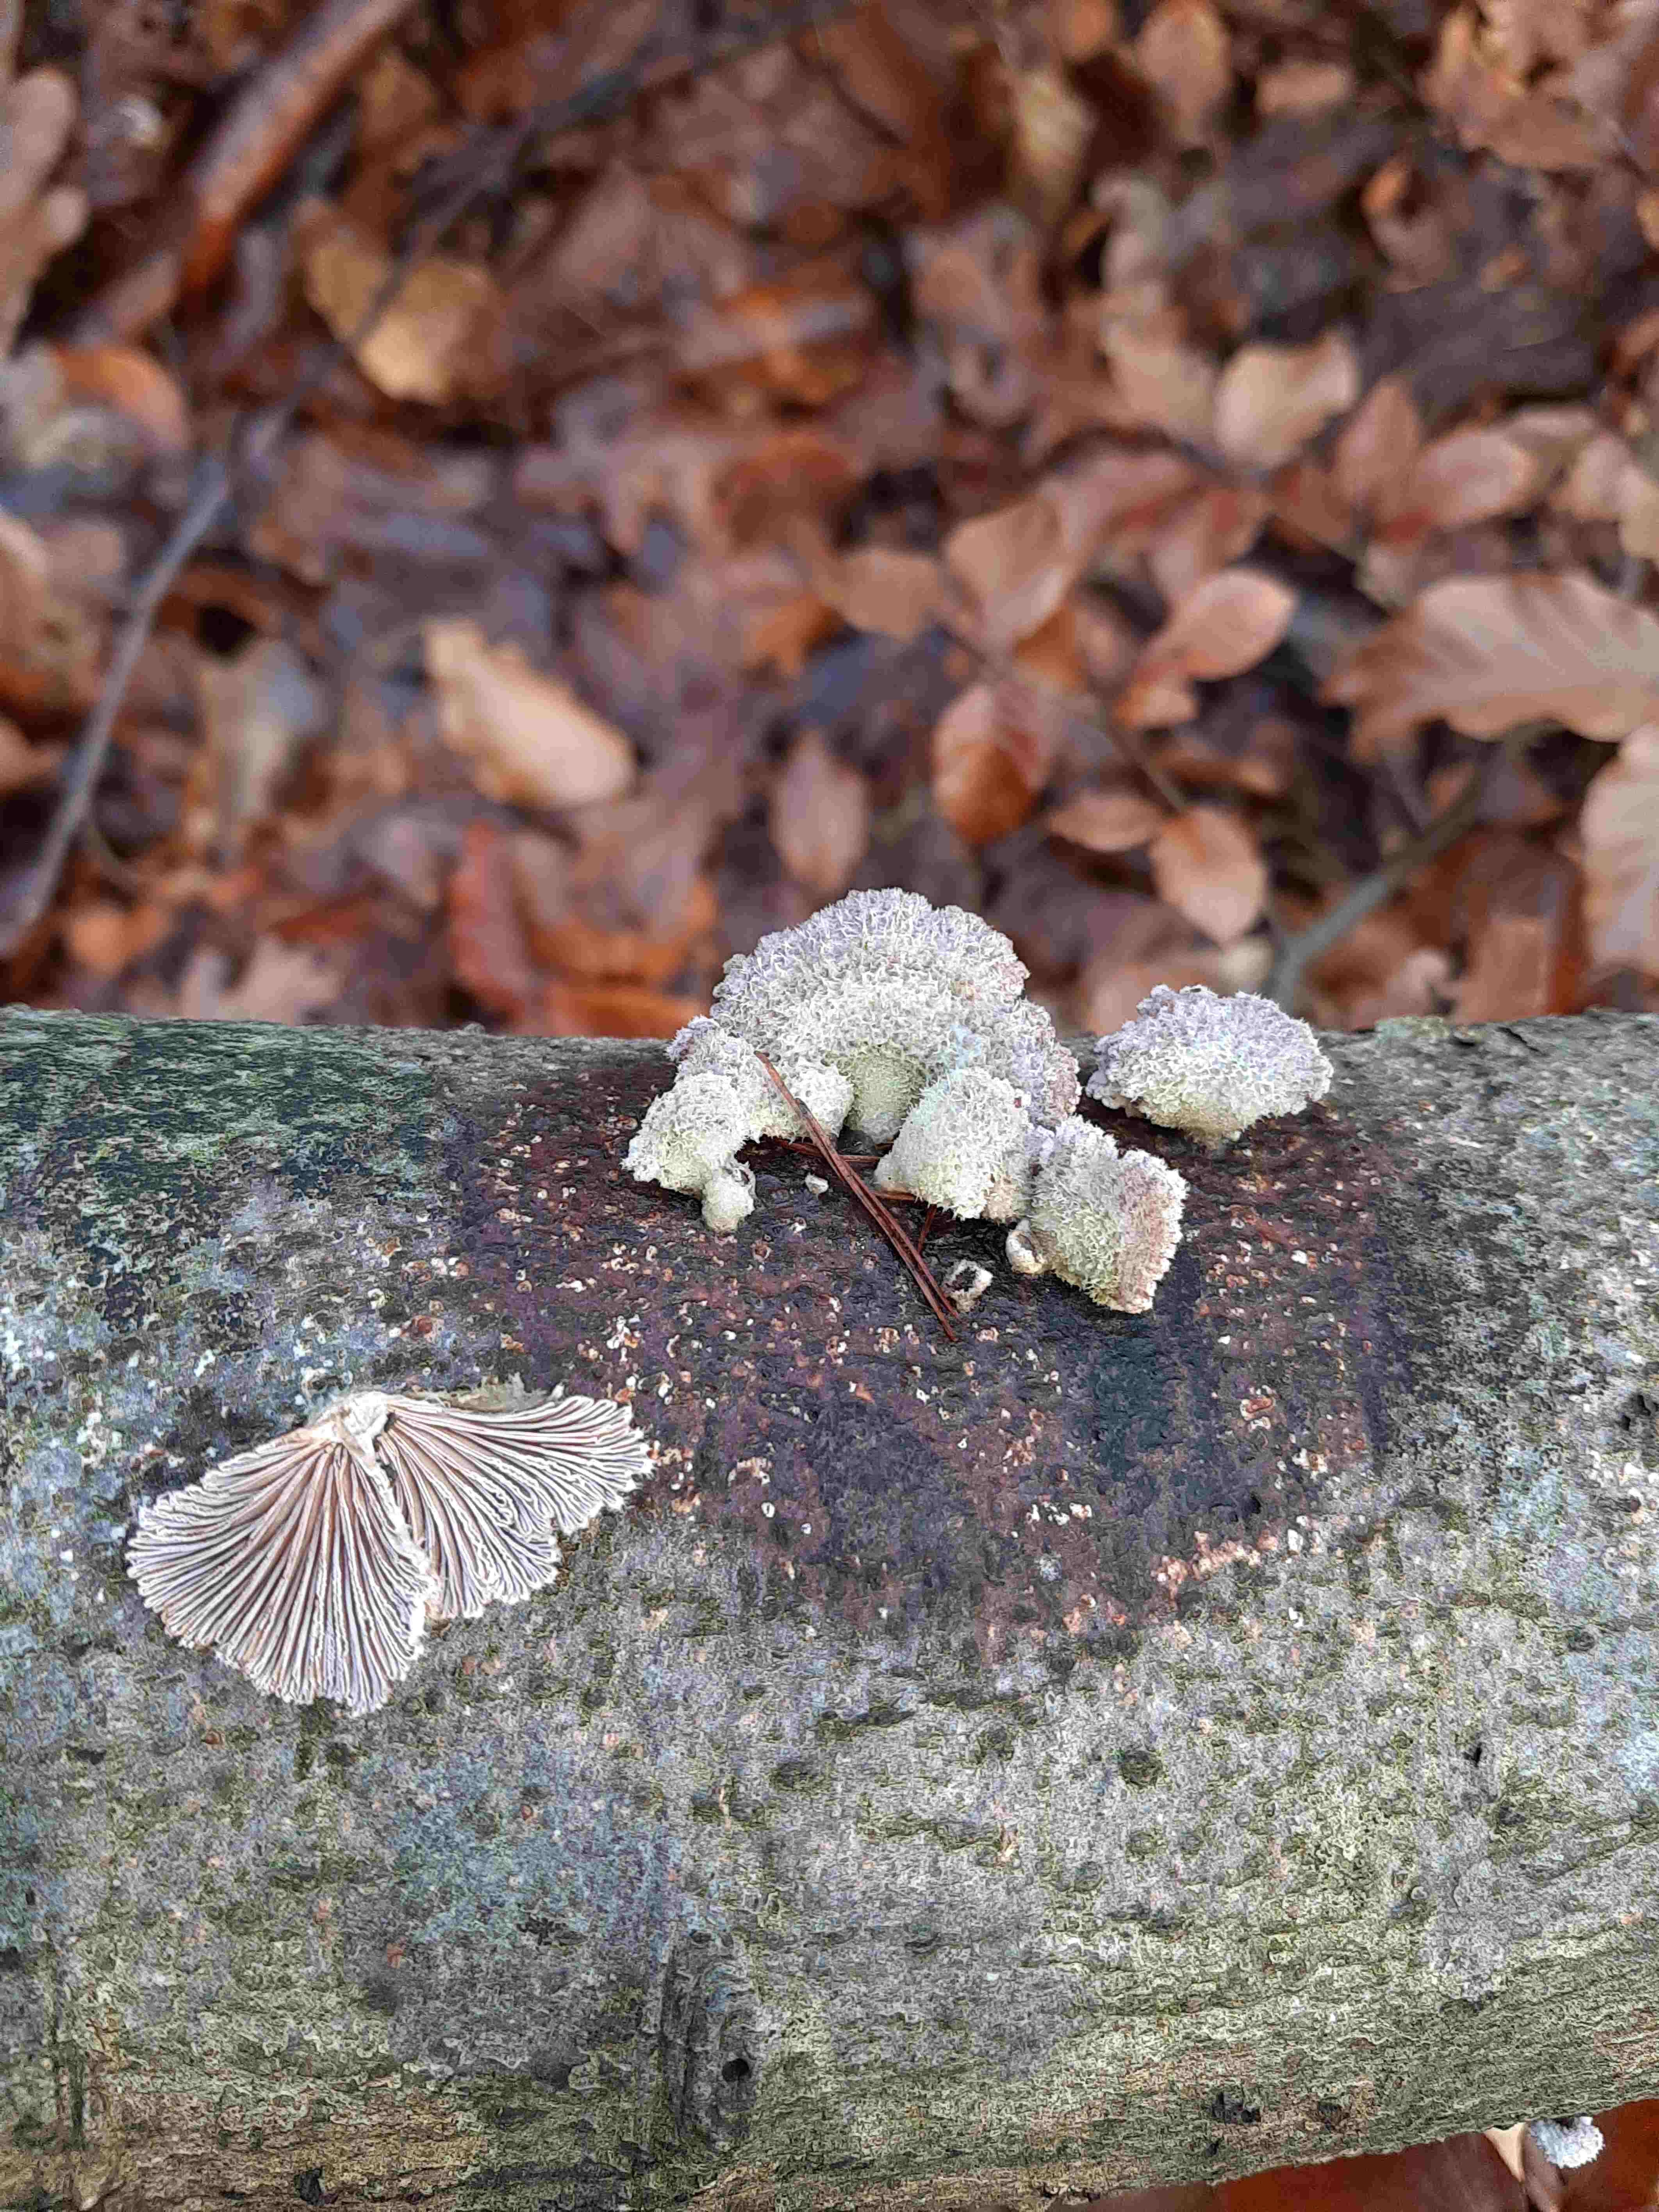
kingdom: Fungi
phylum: Basidiomycota
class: Agaricomycetes
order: Agaricales
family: Schizophyllaceae
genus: Schizophyllum
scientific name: Schizophyllum commune
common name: kløvblad
